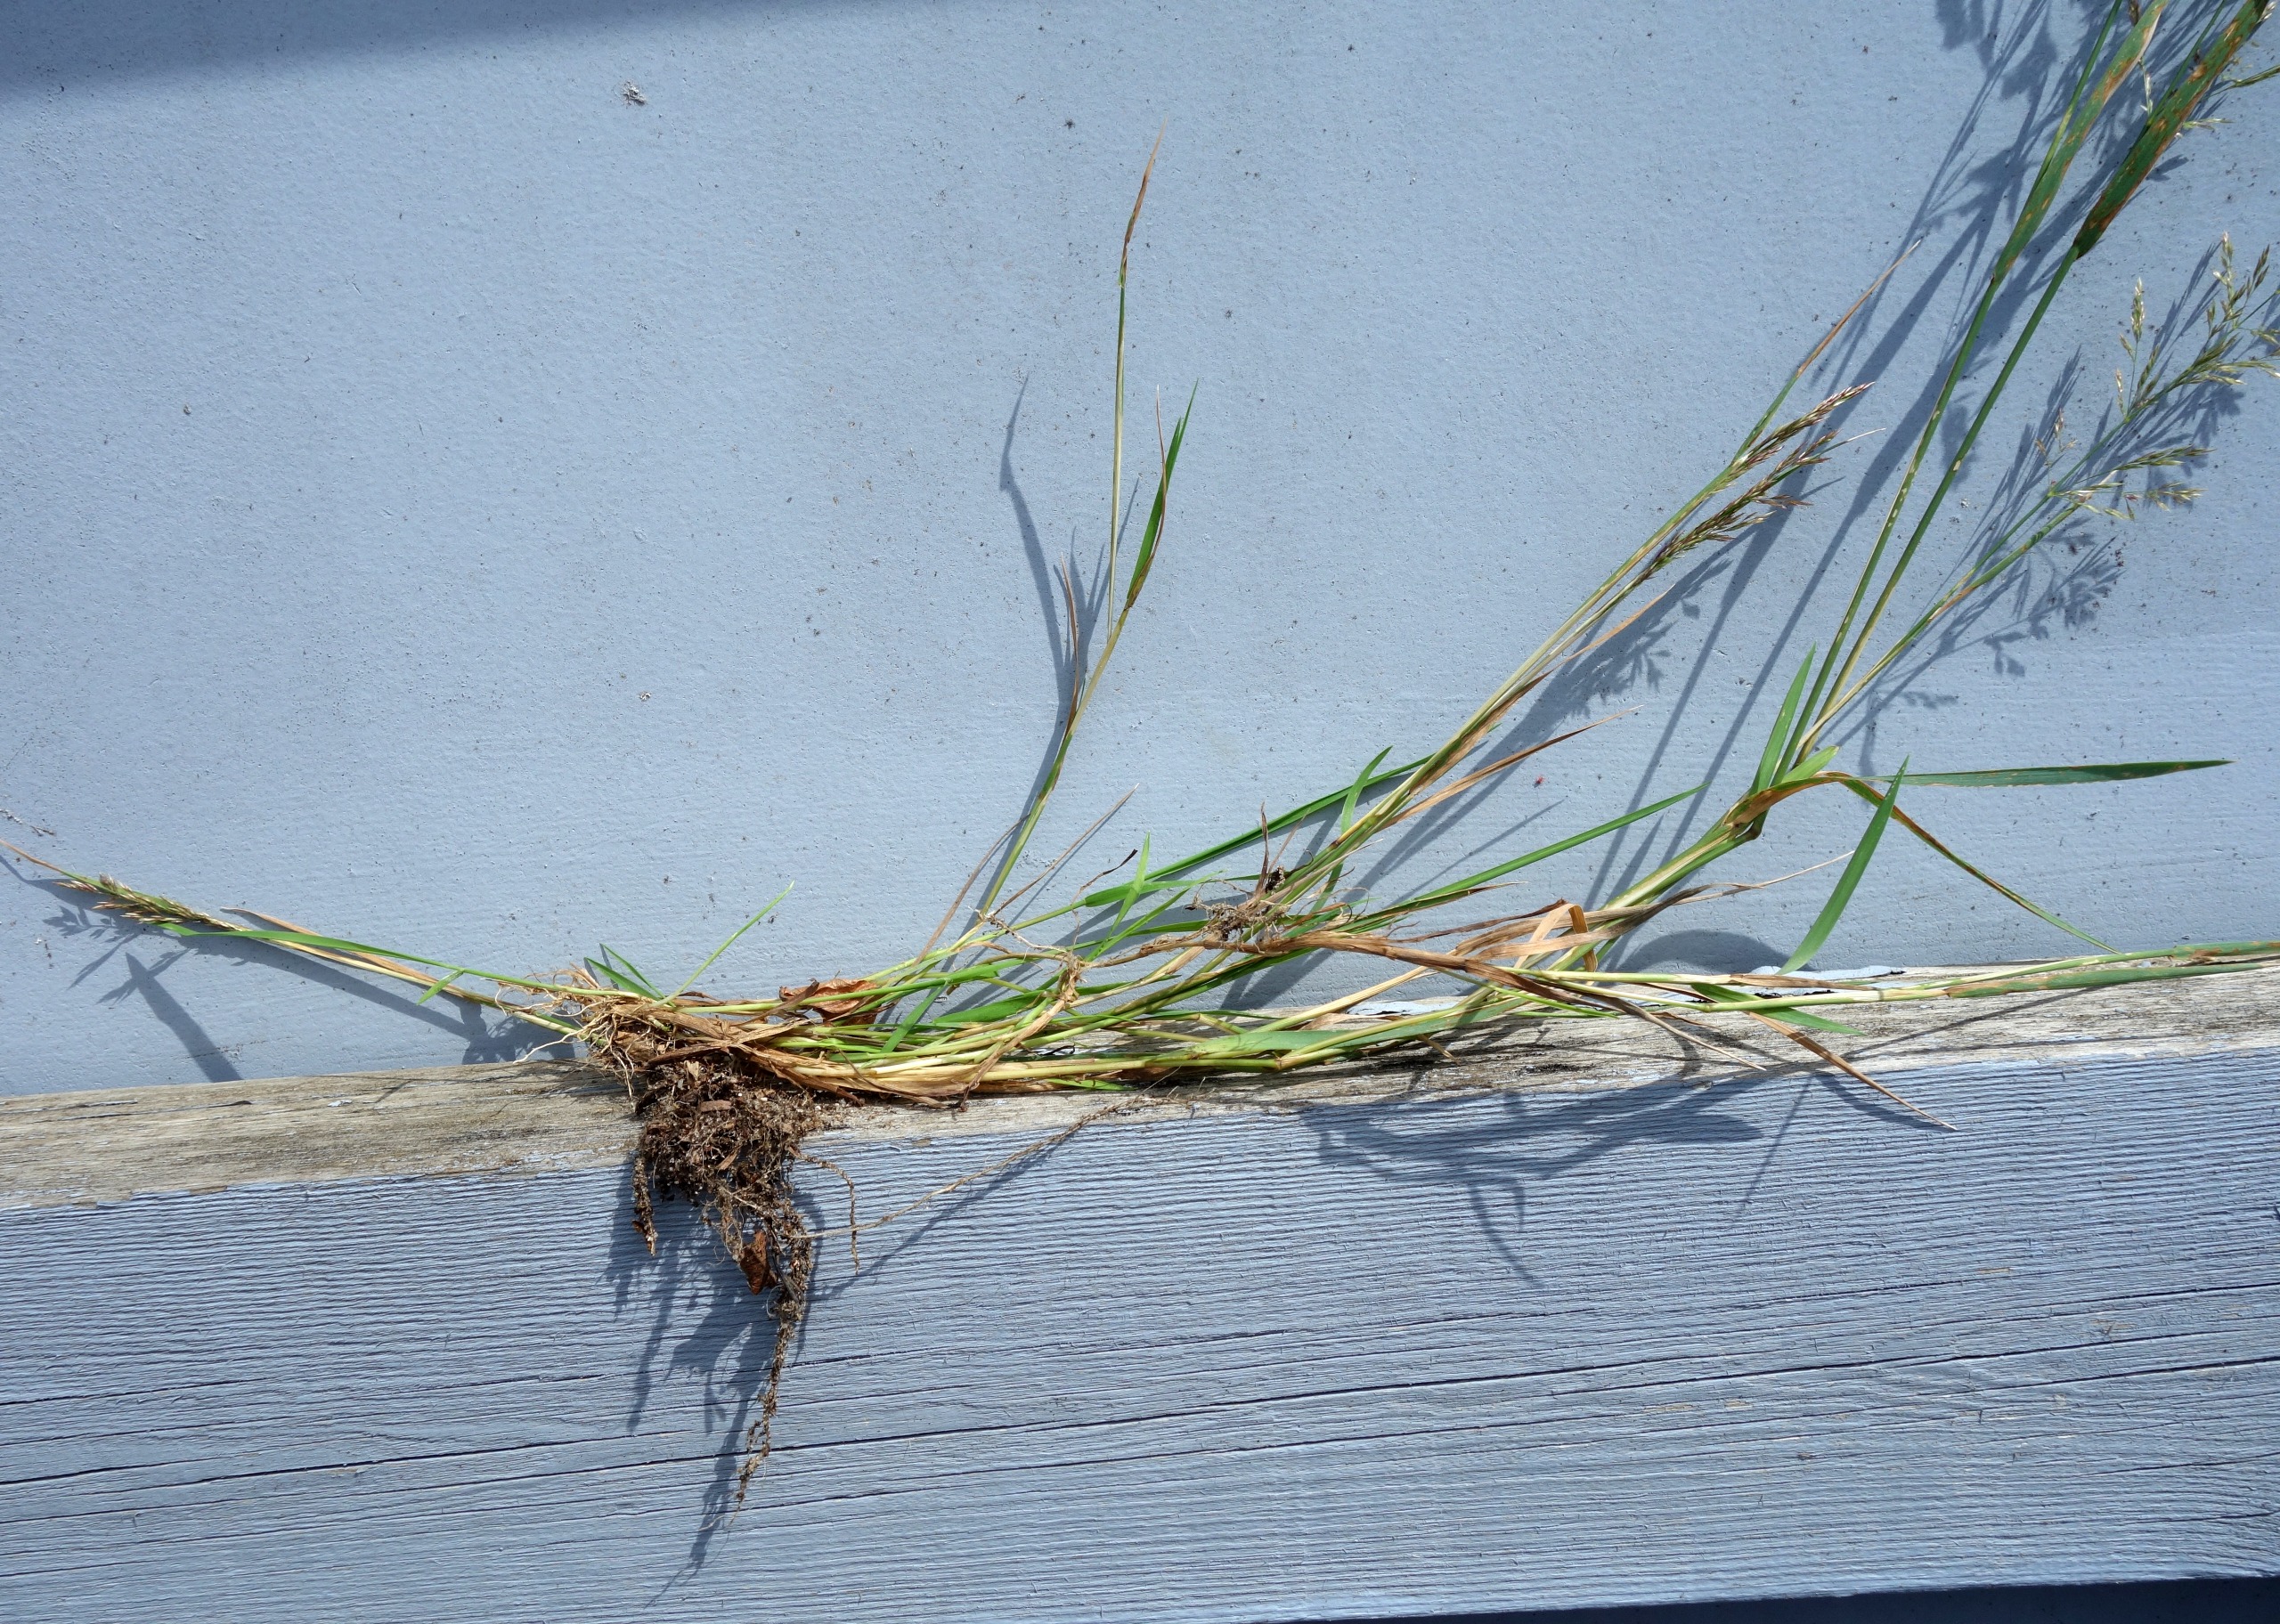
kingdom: Plantae
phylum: Tracheophyta
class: Liliopsida
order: Poales
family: Poaceae
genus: Agrostis
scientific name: Agrostis stolonifera
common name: Kryb-hvene
